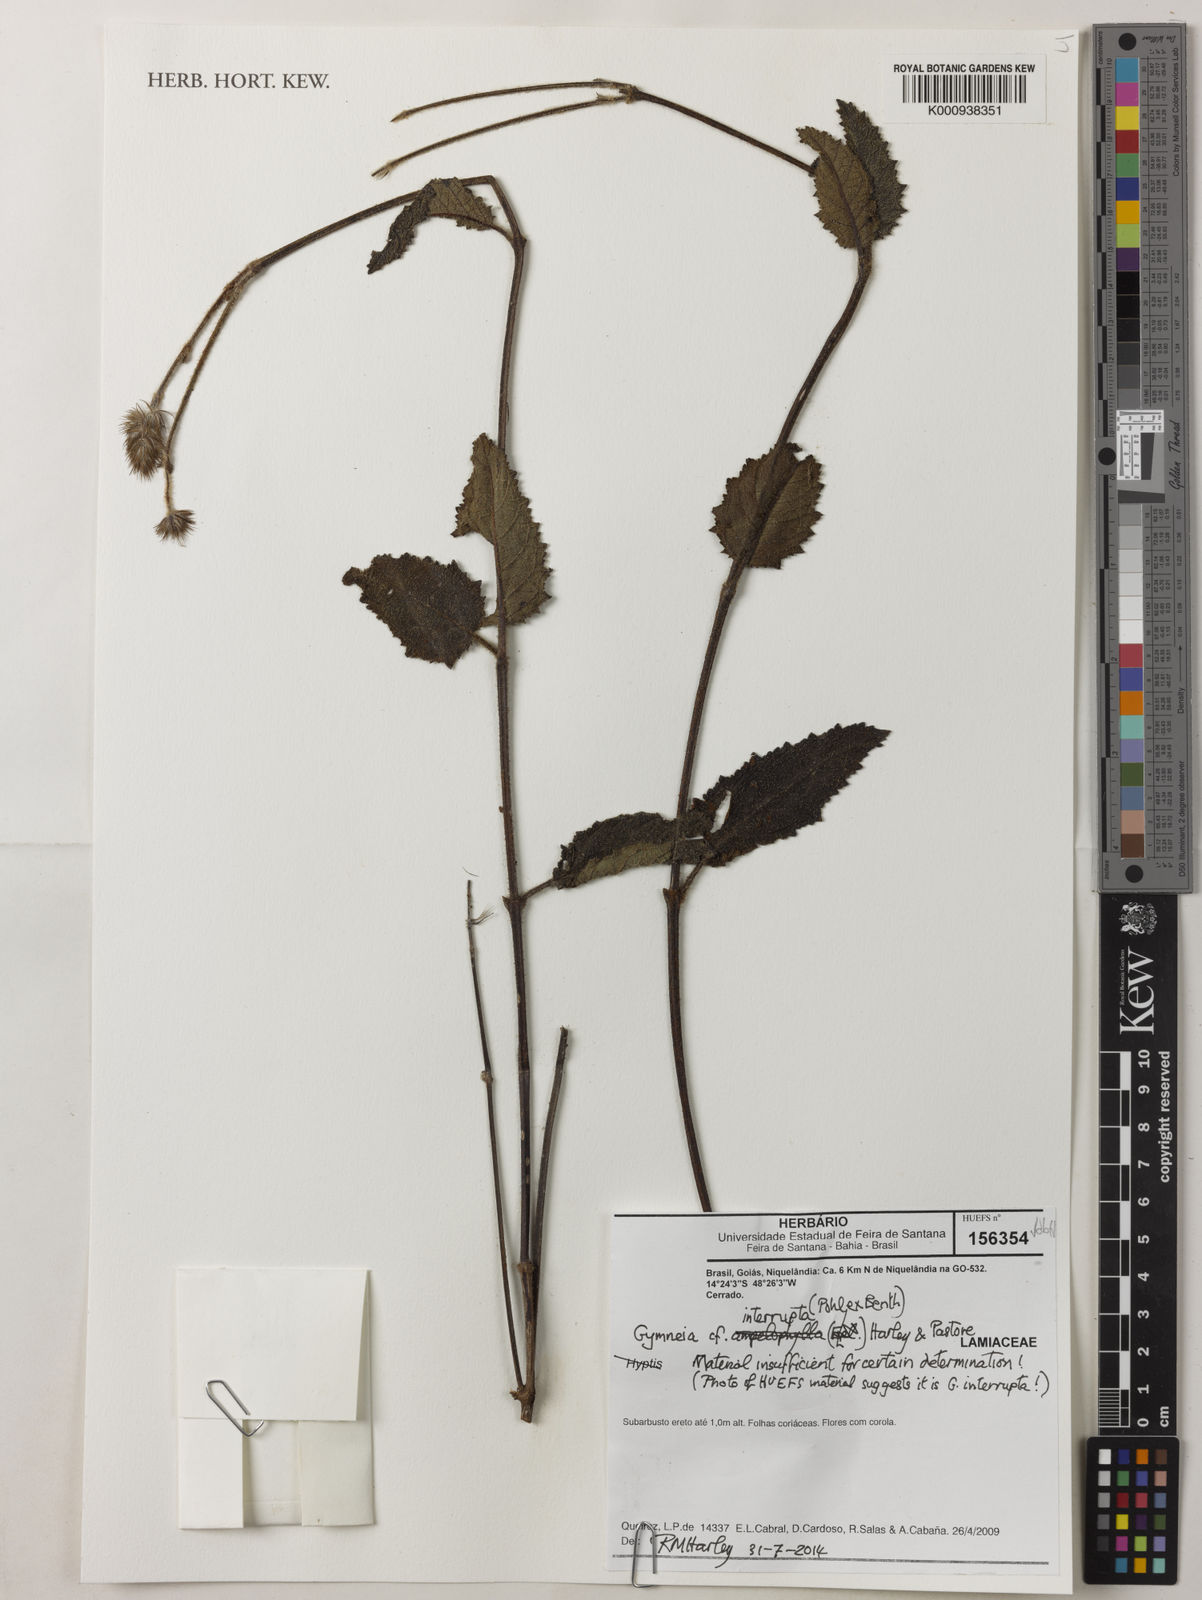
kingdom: Plantae
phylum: Tracheophyta
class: Magnoliopsida
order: Lamiales
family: Lamiaceae
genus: Gymneia
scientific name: Gymneia interrupta
